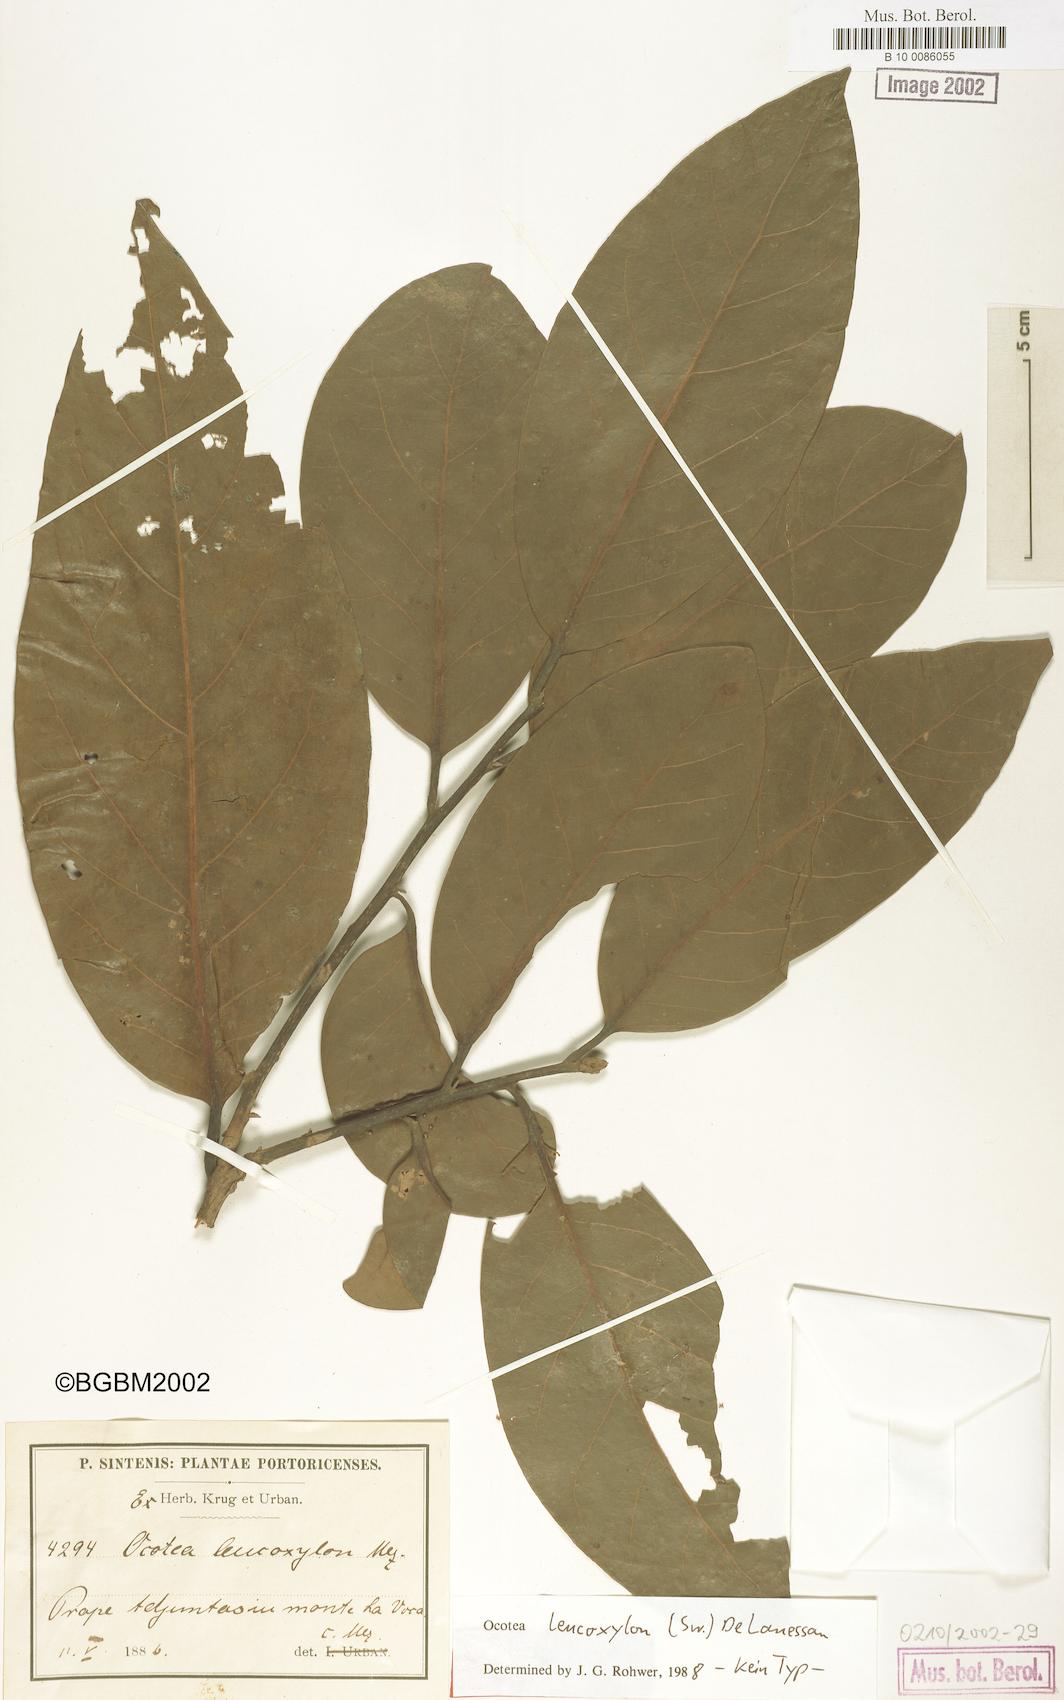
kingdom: Plantae
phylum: Tracheophyta
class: Magnoliopsida
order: Laurales
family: Lauraceae
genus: Ocotea
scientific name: Ocotea leucoxylon
